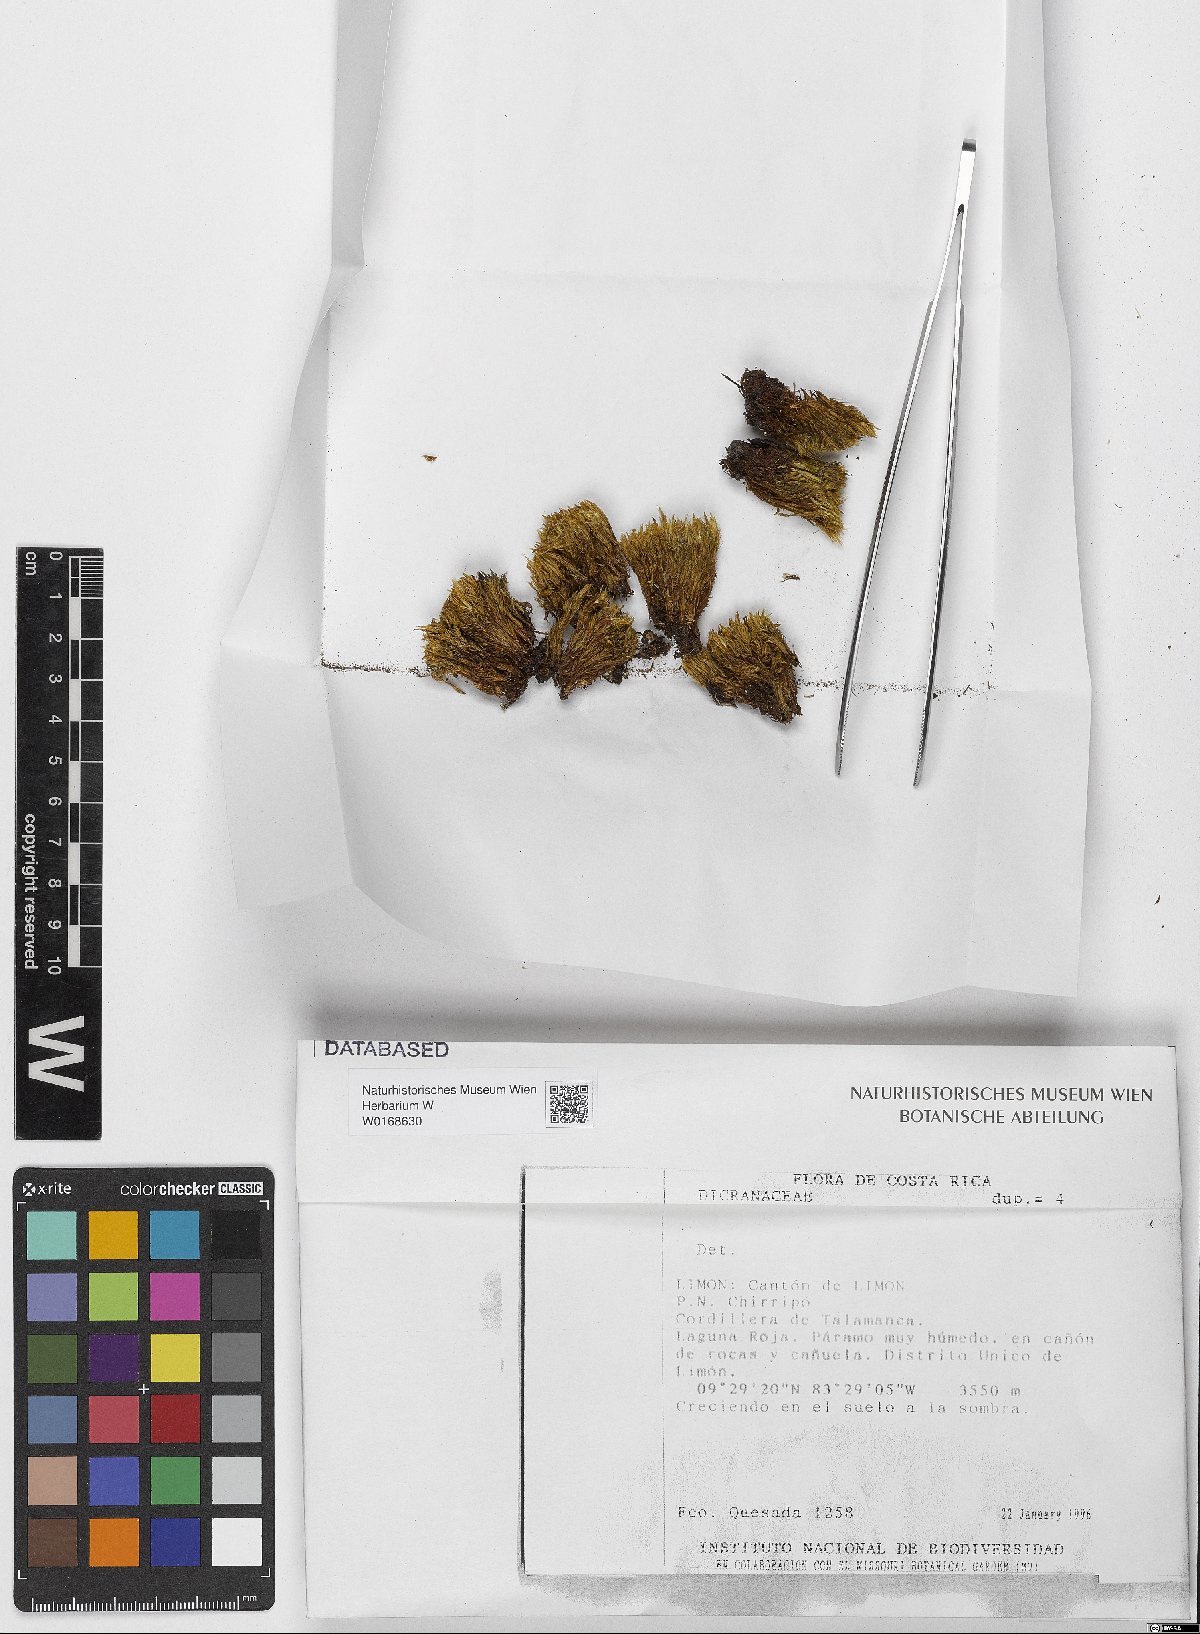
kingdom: Plantae
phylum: Bryophyta
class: Bryopsida
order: Dicranales
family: Dicranaceae
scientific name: Dicranaceae
